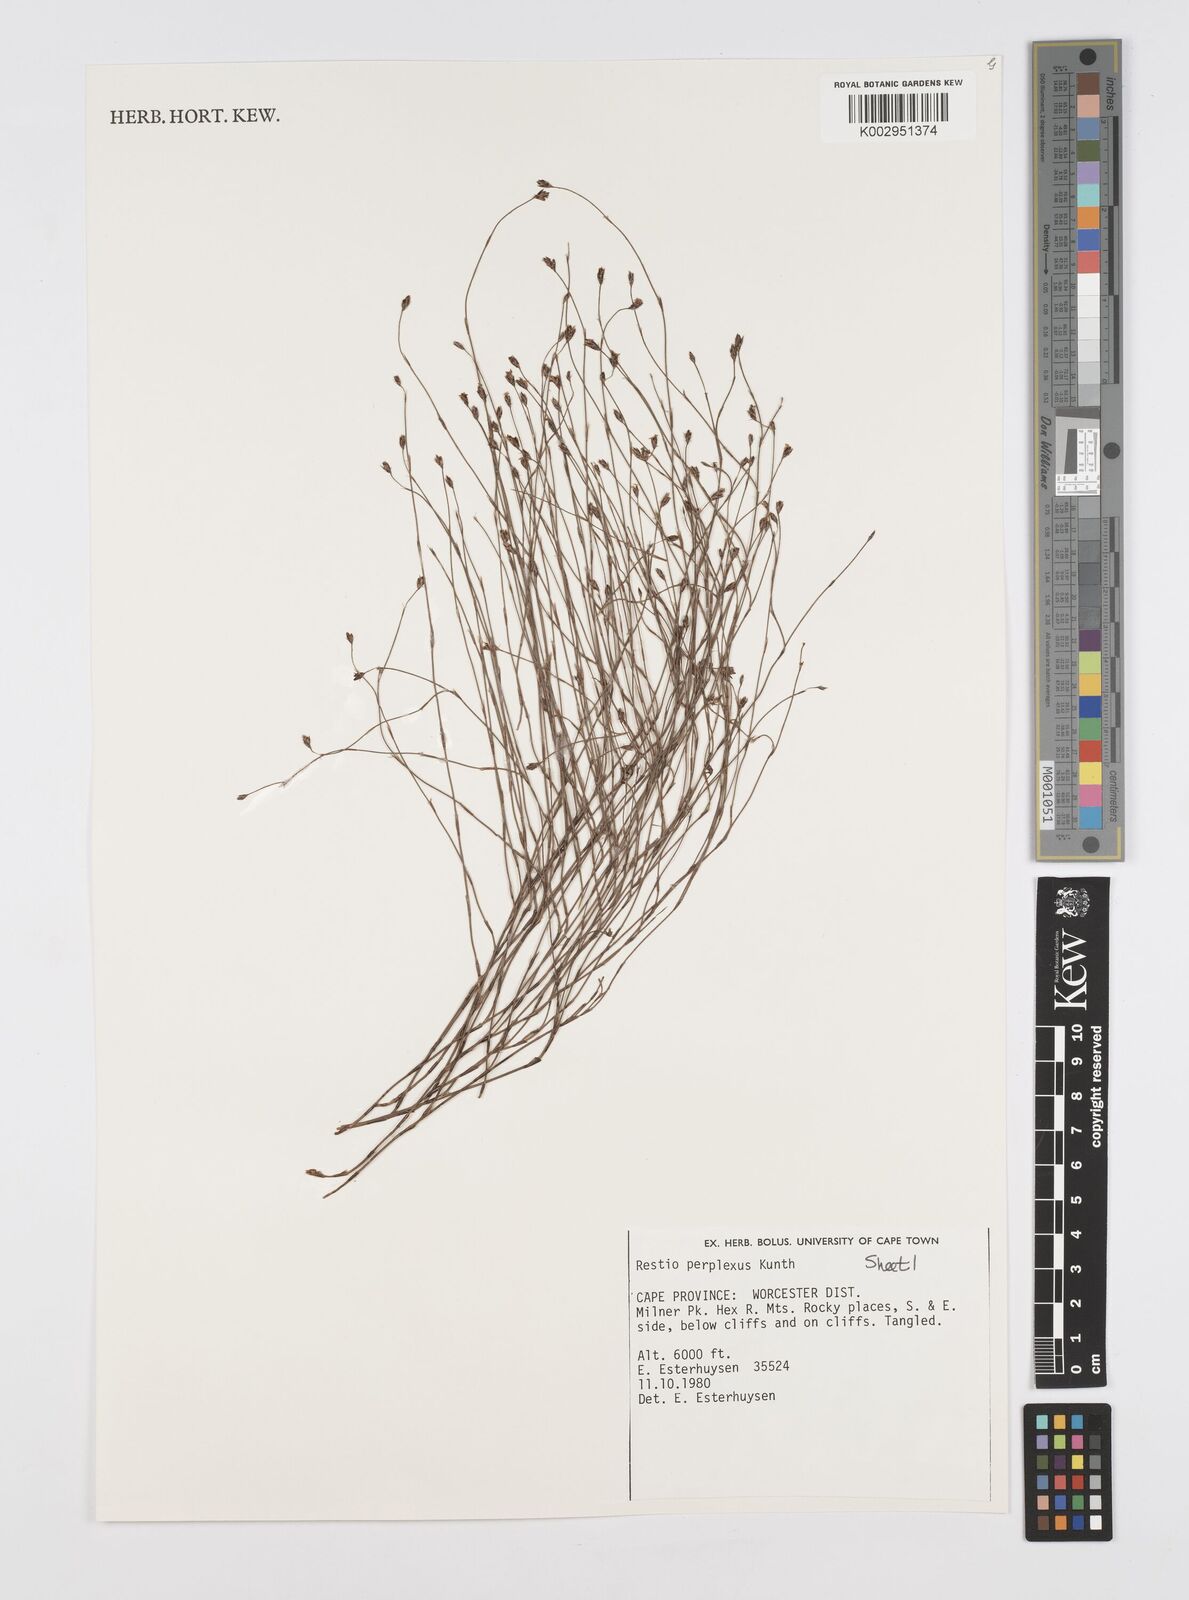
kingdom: Plantae
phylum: Tracheophyta
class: Liliopsida
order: Poales
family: Restionaceae
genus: Restio
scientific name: Restio perplexus
